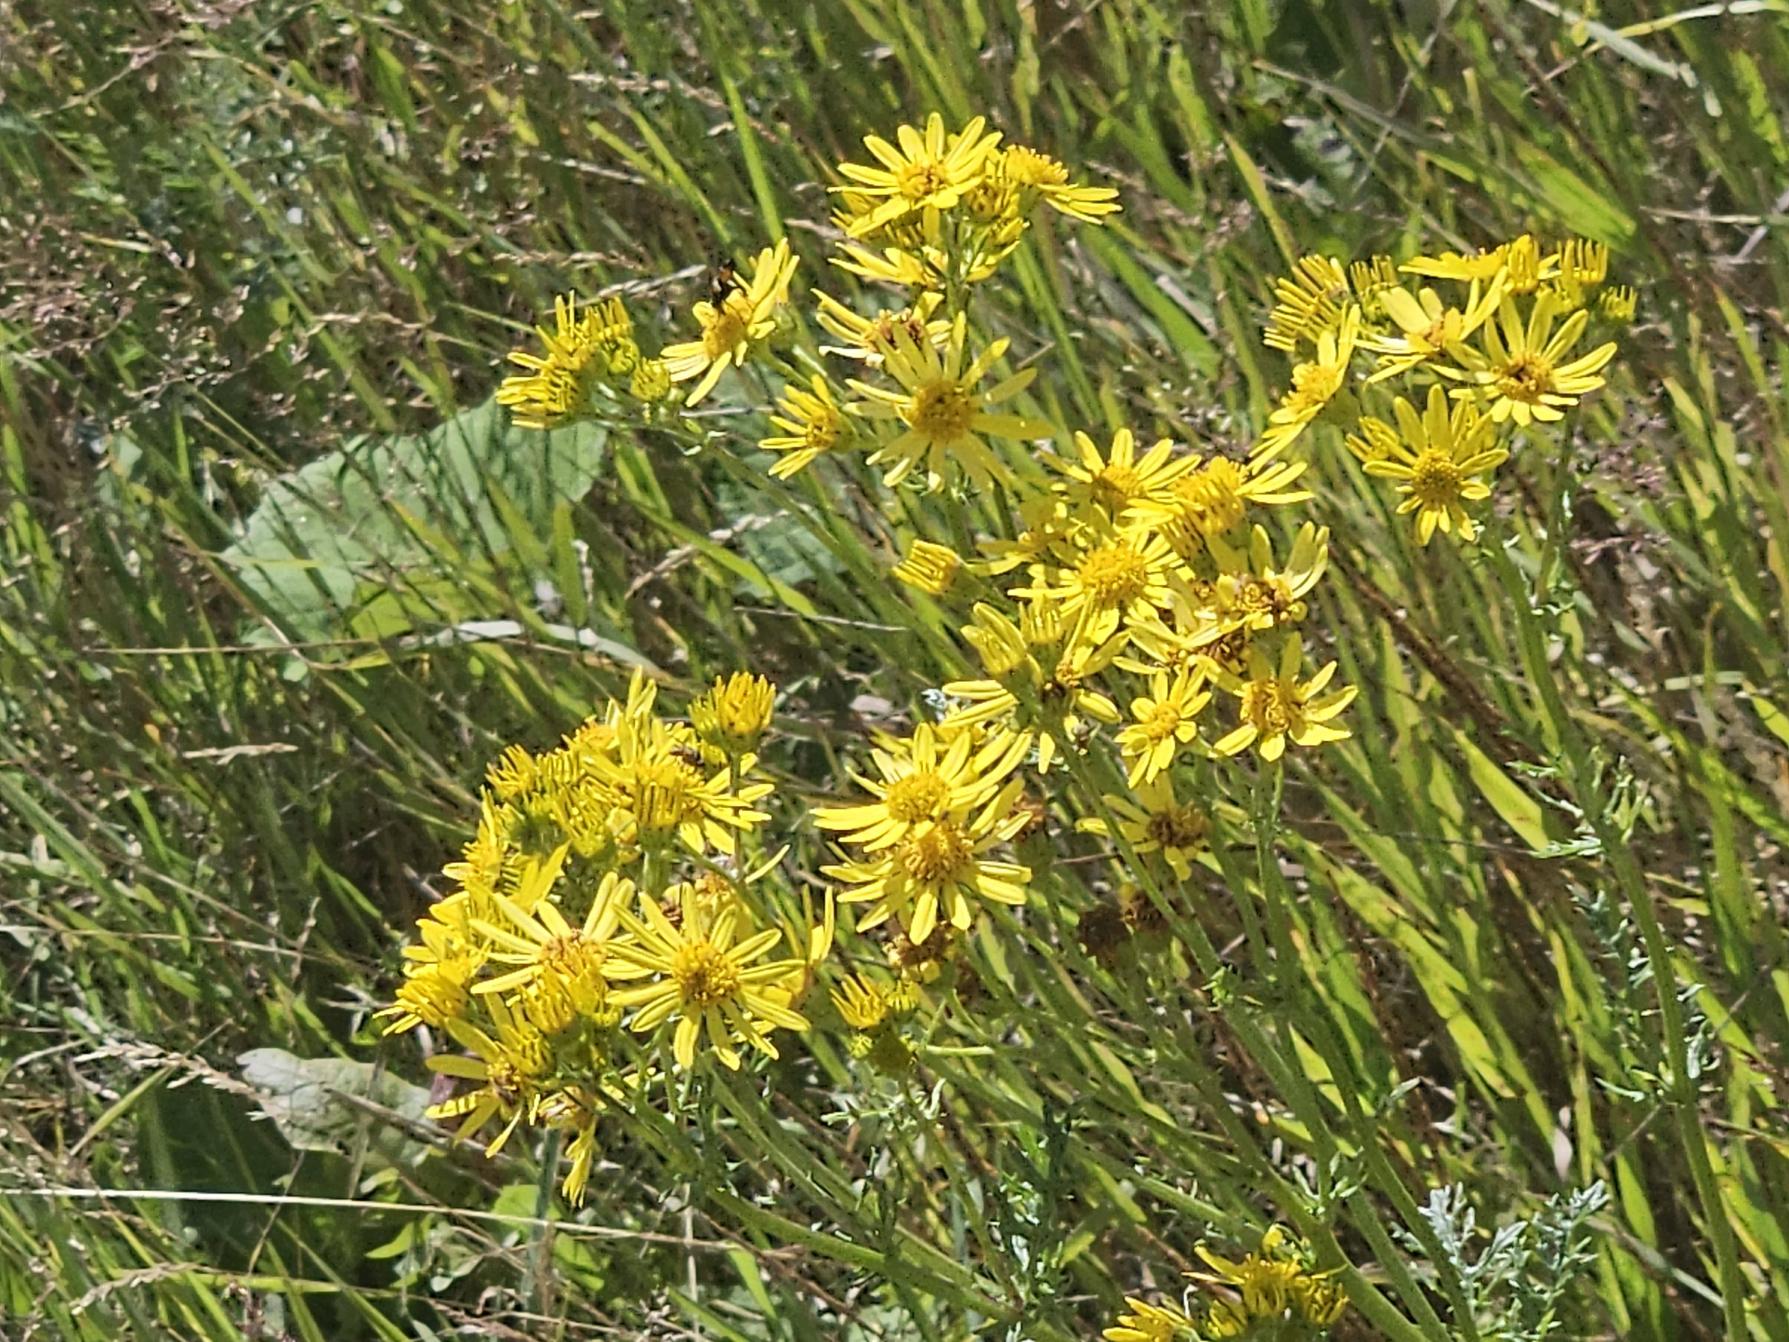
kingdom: Plantae
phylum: Tracheophyta
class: Magnoliopsida
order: Asterales
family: Asteraceae
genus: Jacobaea
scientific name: Jacobaea vulgaris
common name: Eng-brandbæger
